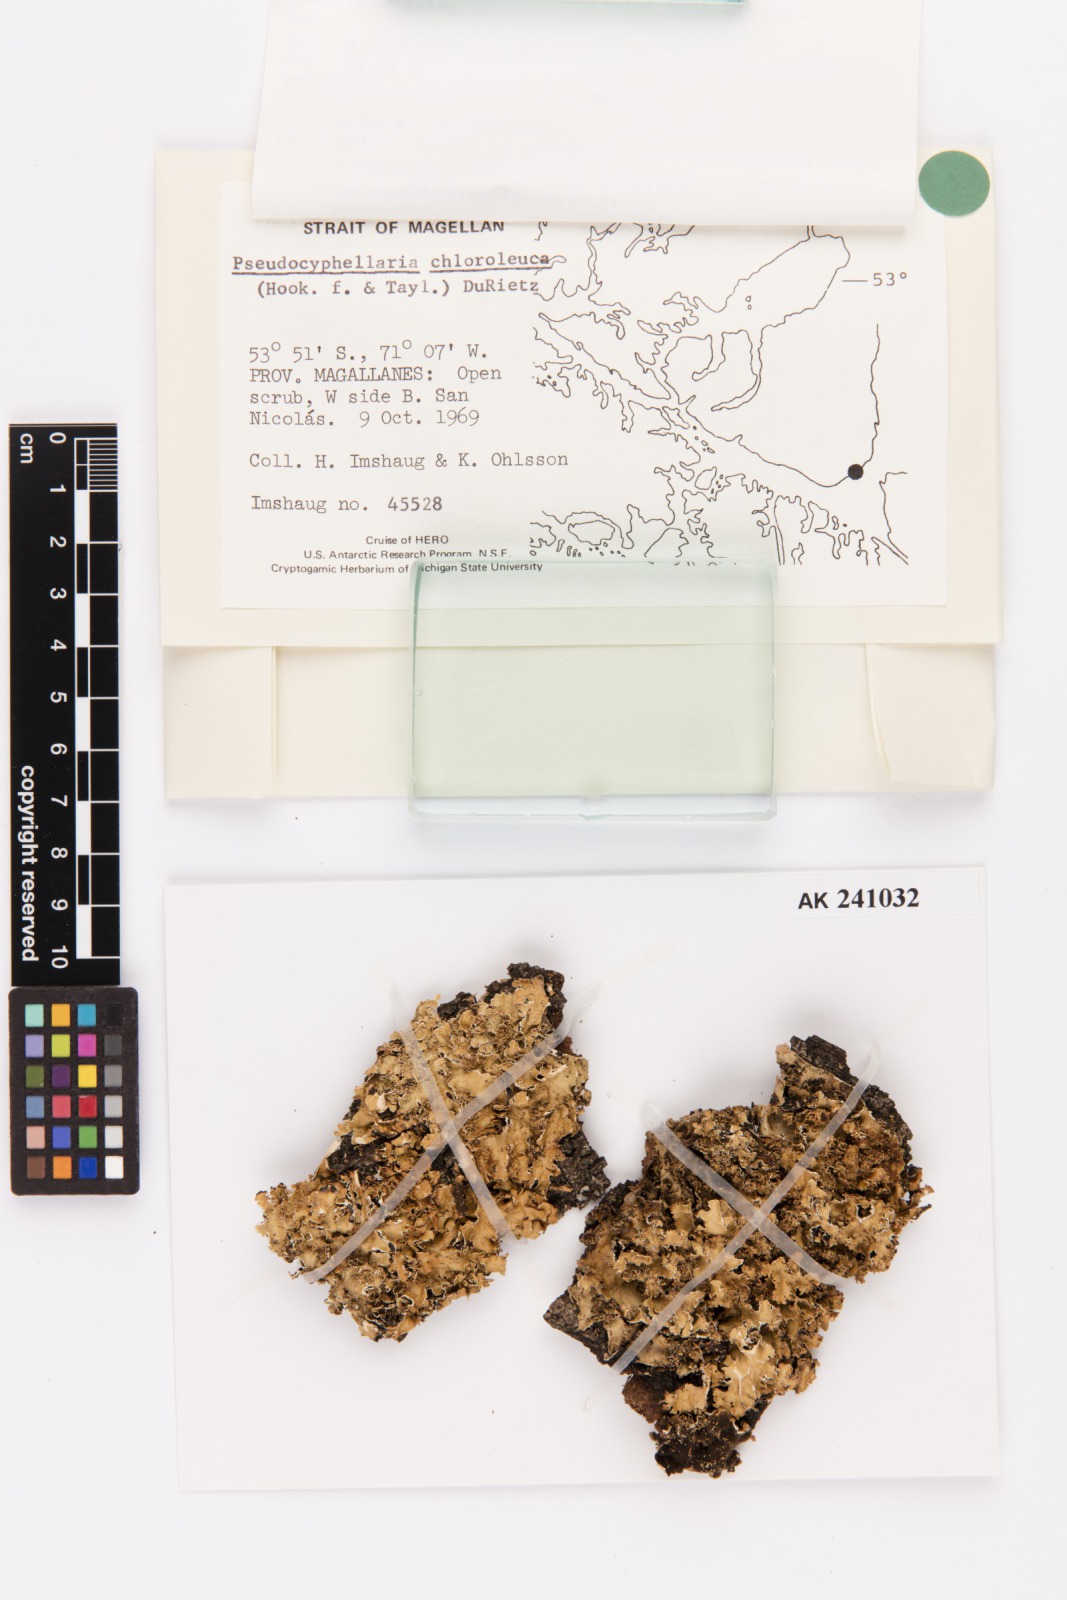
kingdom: Fungi
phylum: Ascomycota
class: Lecanoromycetes
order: Peltigerales
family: Lobariaceae
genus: Pseudocyphellaria
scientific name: Pseudocyphellaria chloroleuca
